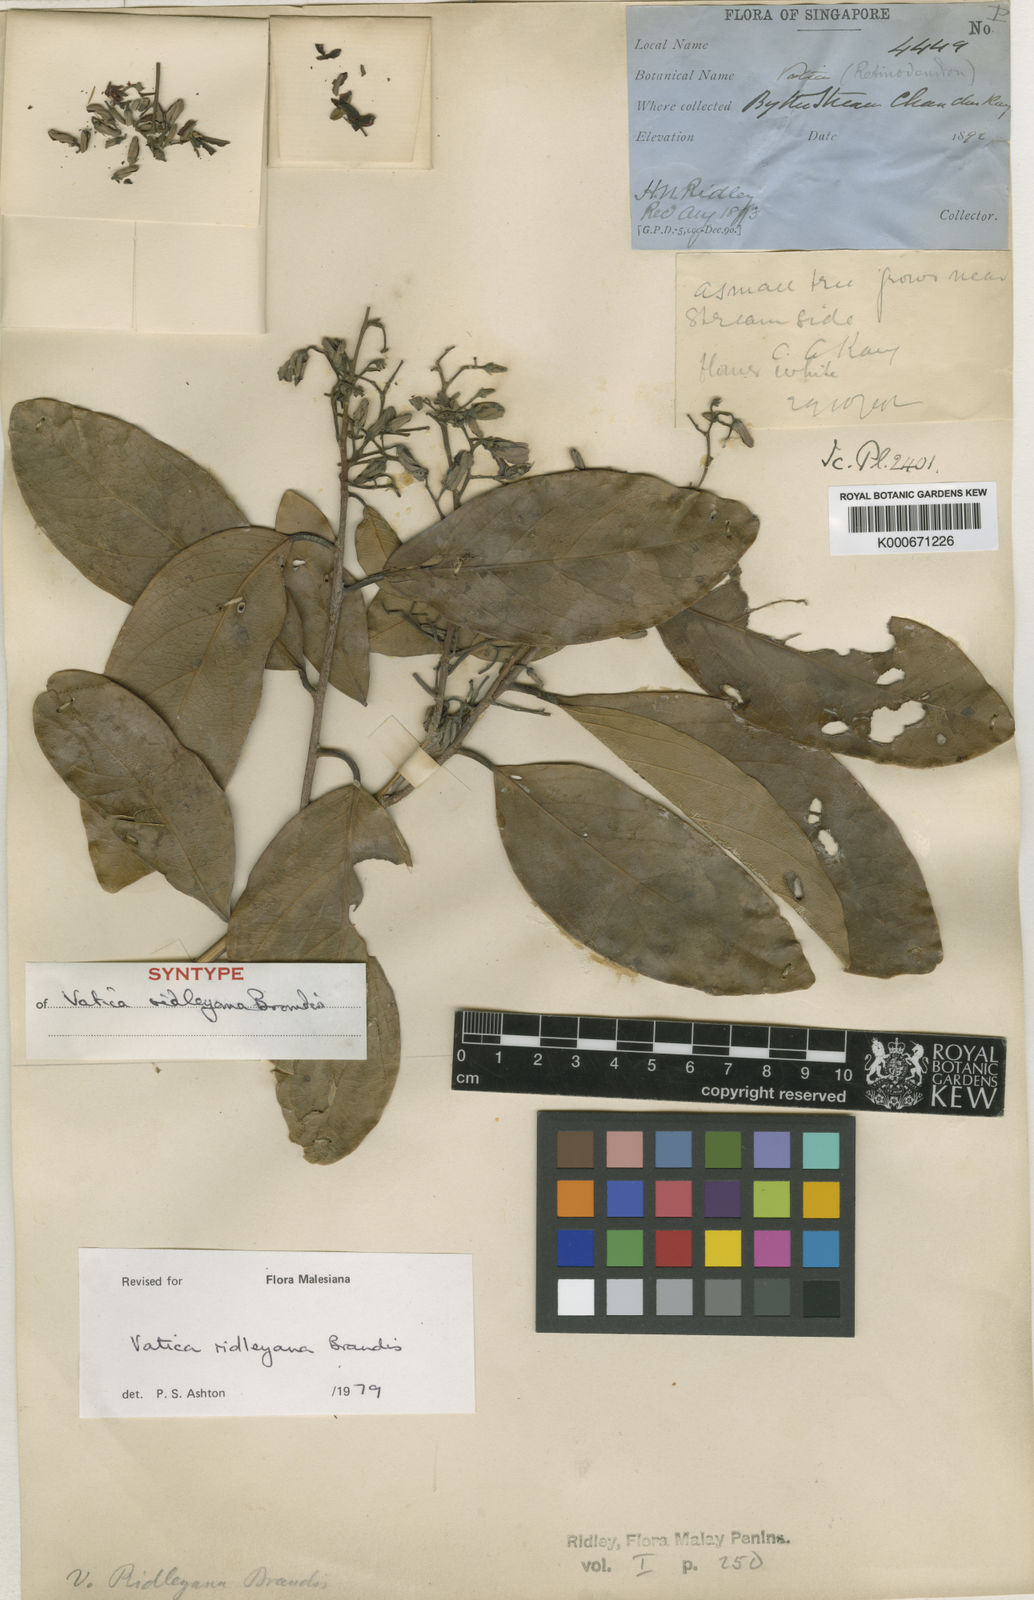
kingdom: Plantae
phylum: Tracheophyta
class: Magnoliopsida
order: Malvales
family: Dipterocarpaceae
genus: Vatica
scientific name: Vatica ridleyana
